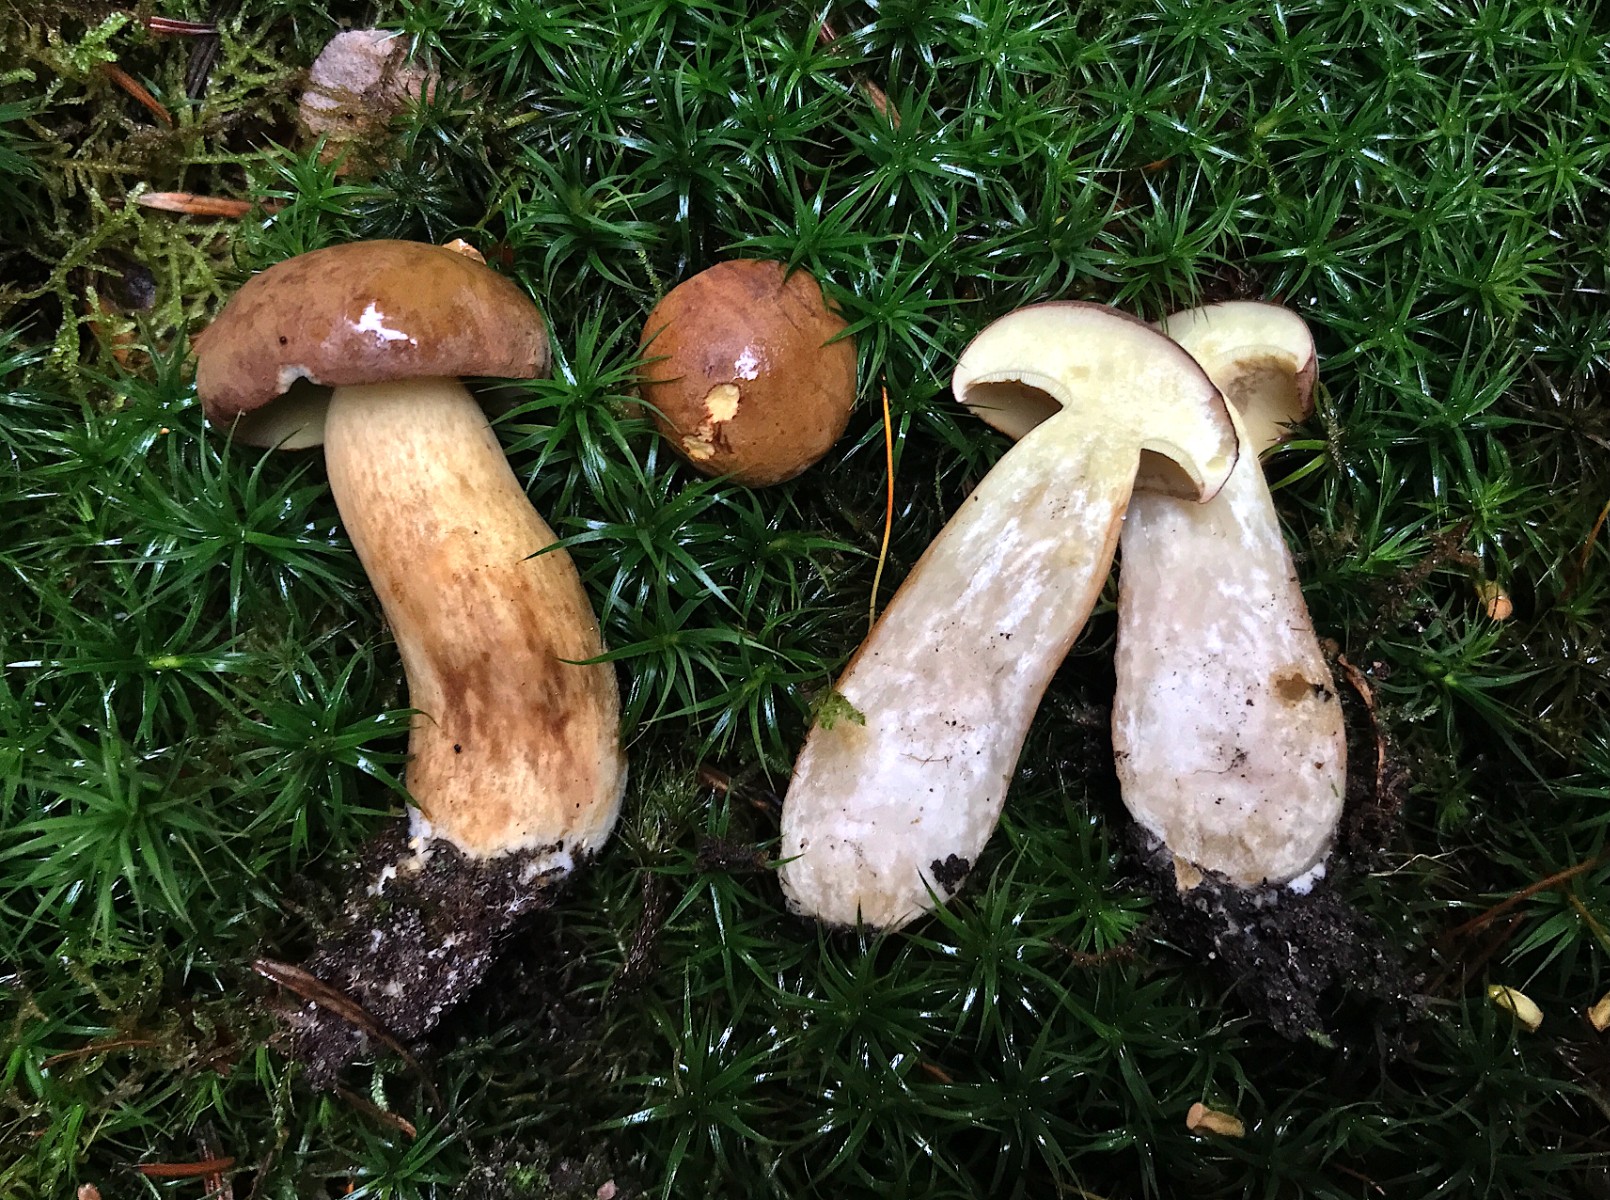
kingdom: Fungi
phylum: Basidiomycota
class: Agaricomycetes
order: Boletales
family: Boletaceae
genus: Imleria
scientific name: Imleria badia
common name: brunstokket rørhat
